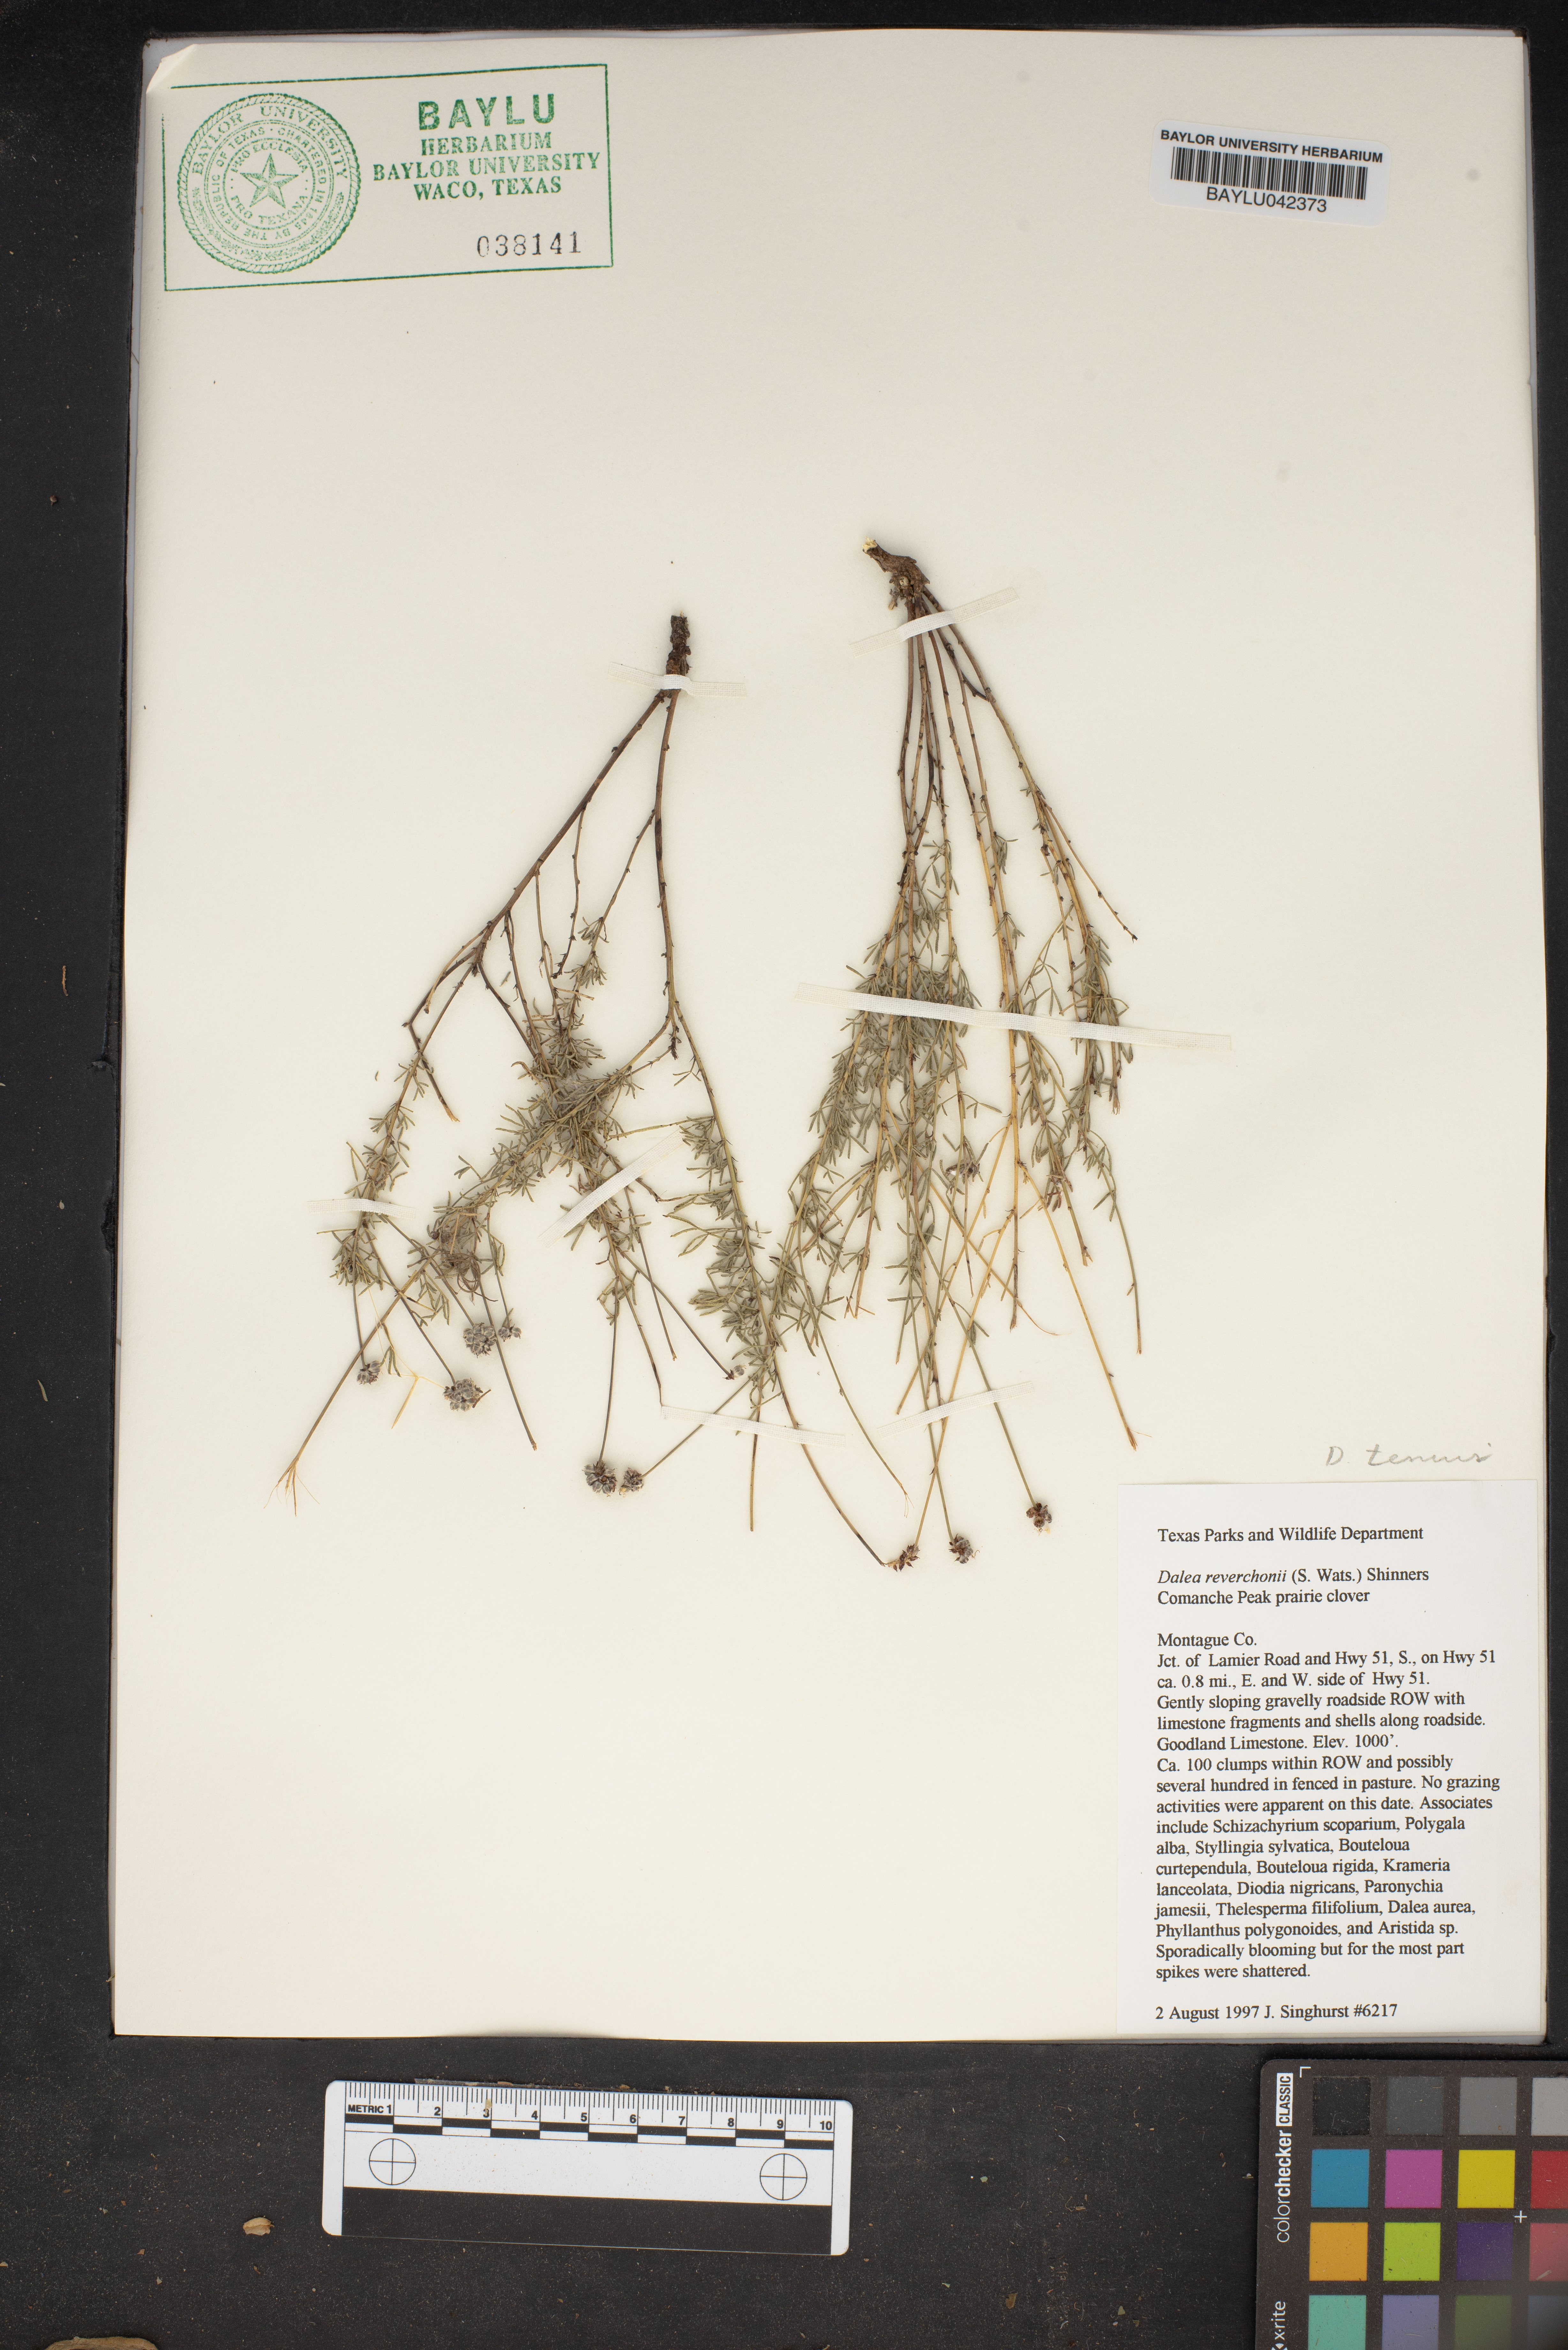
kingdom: Plantae
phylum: Tracheophyta
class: Magnoliopsida
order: Fabales
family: Fabaceae
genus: Dalea
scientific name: Dalea reverchonii
